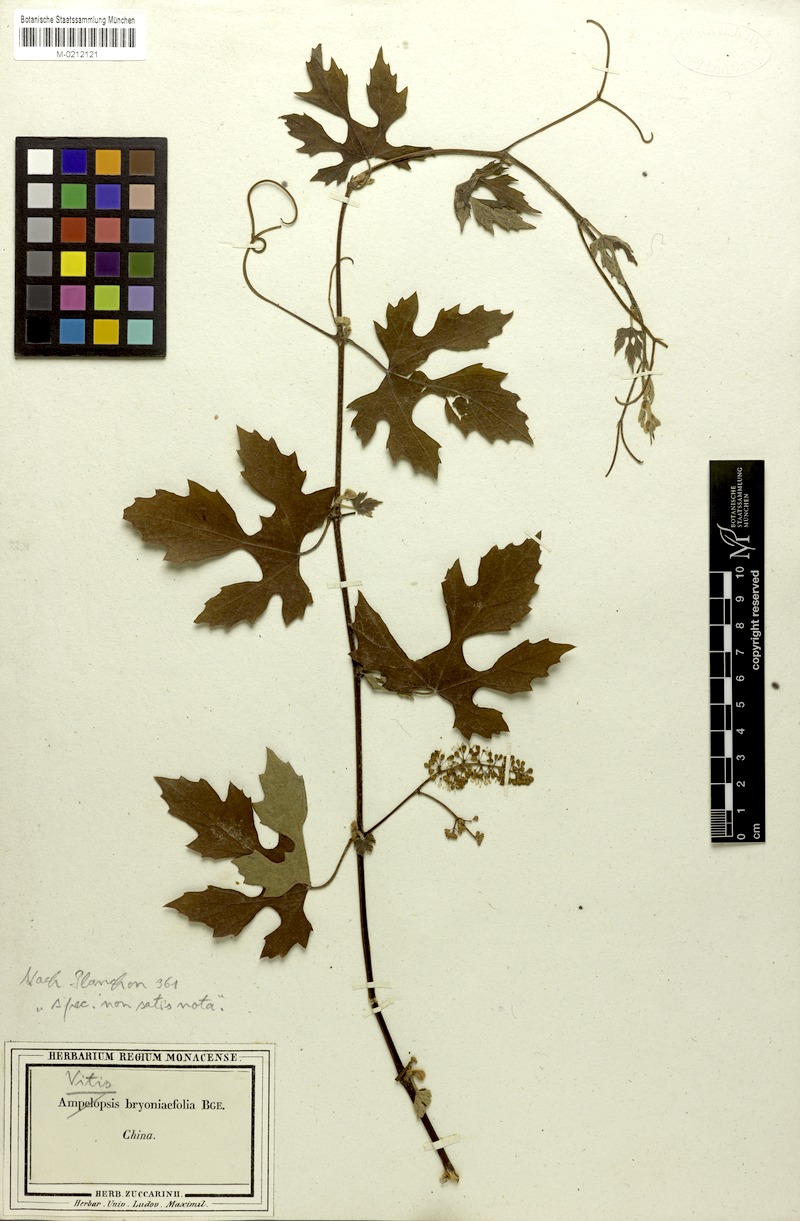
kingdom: Plantae
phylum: Tracheophyta
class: Magnoliopsida
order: Vitales
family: Vitaceae
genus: Vitis
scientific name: Vitis bryoniifolia
